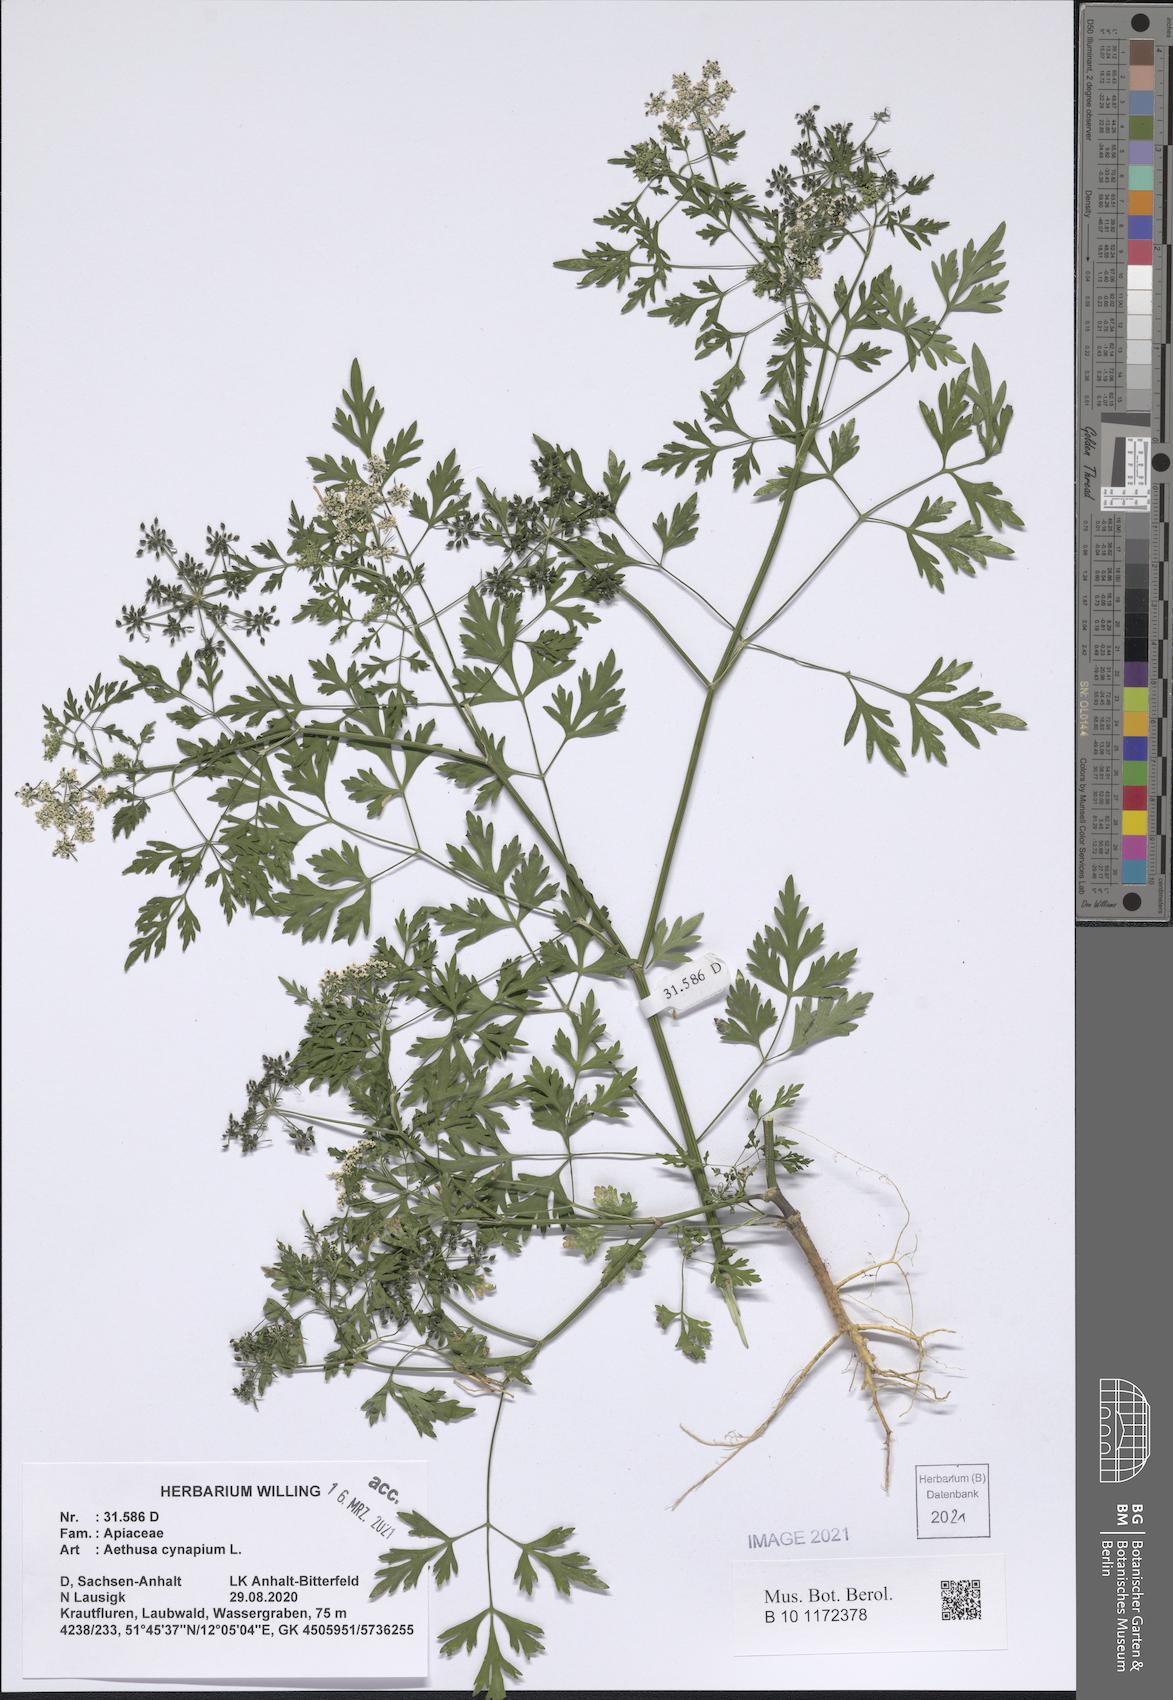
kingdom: Plantae
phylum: Tracheophyta
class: Magnoliopsida
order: Apiales
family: Apiaceae
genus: Aethusa
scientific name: Aethusa cynapium
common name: Fool's parsley
